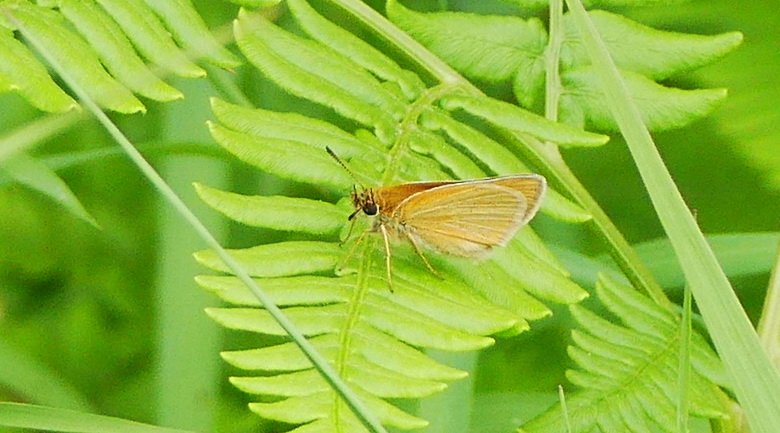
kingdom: Animalia
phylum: Arthropoda
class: Insecta
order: Lepidoptera
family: Hesperiidae
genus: Thymelicus
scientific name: Thymelicus lineola
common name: European Skipper
